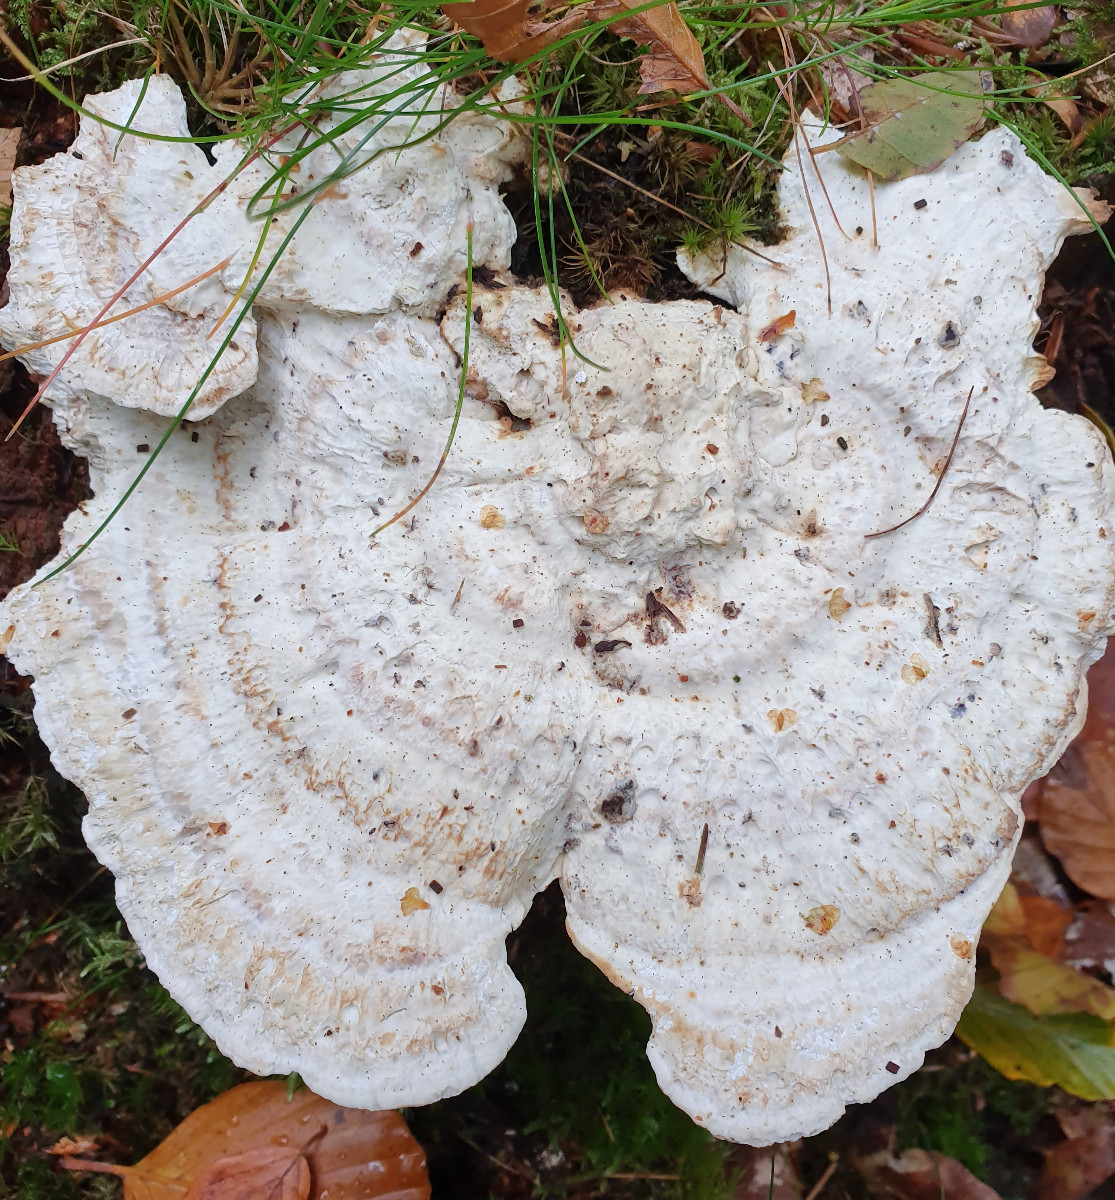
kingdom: Fungi
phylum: Basidiomycota
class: Agaricomycetes
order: Polyporales
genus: Calcipostia
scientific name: Calcipostia guttulata
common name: dråbe-kødporesvamp
